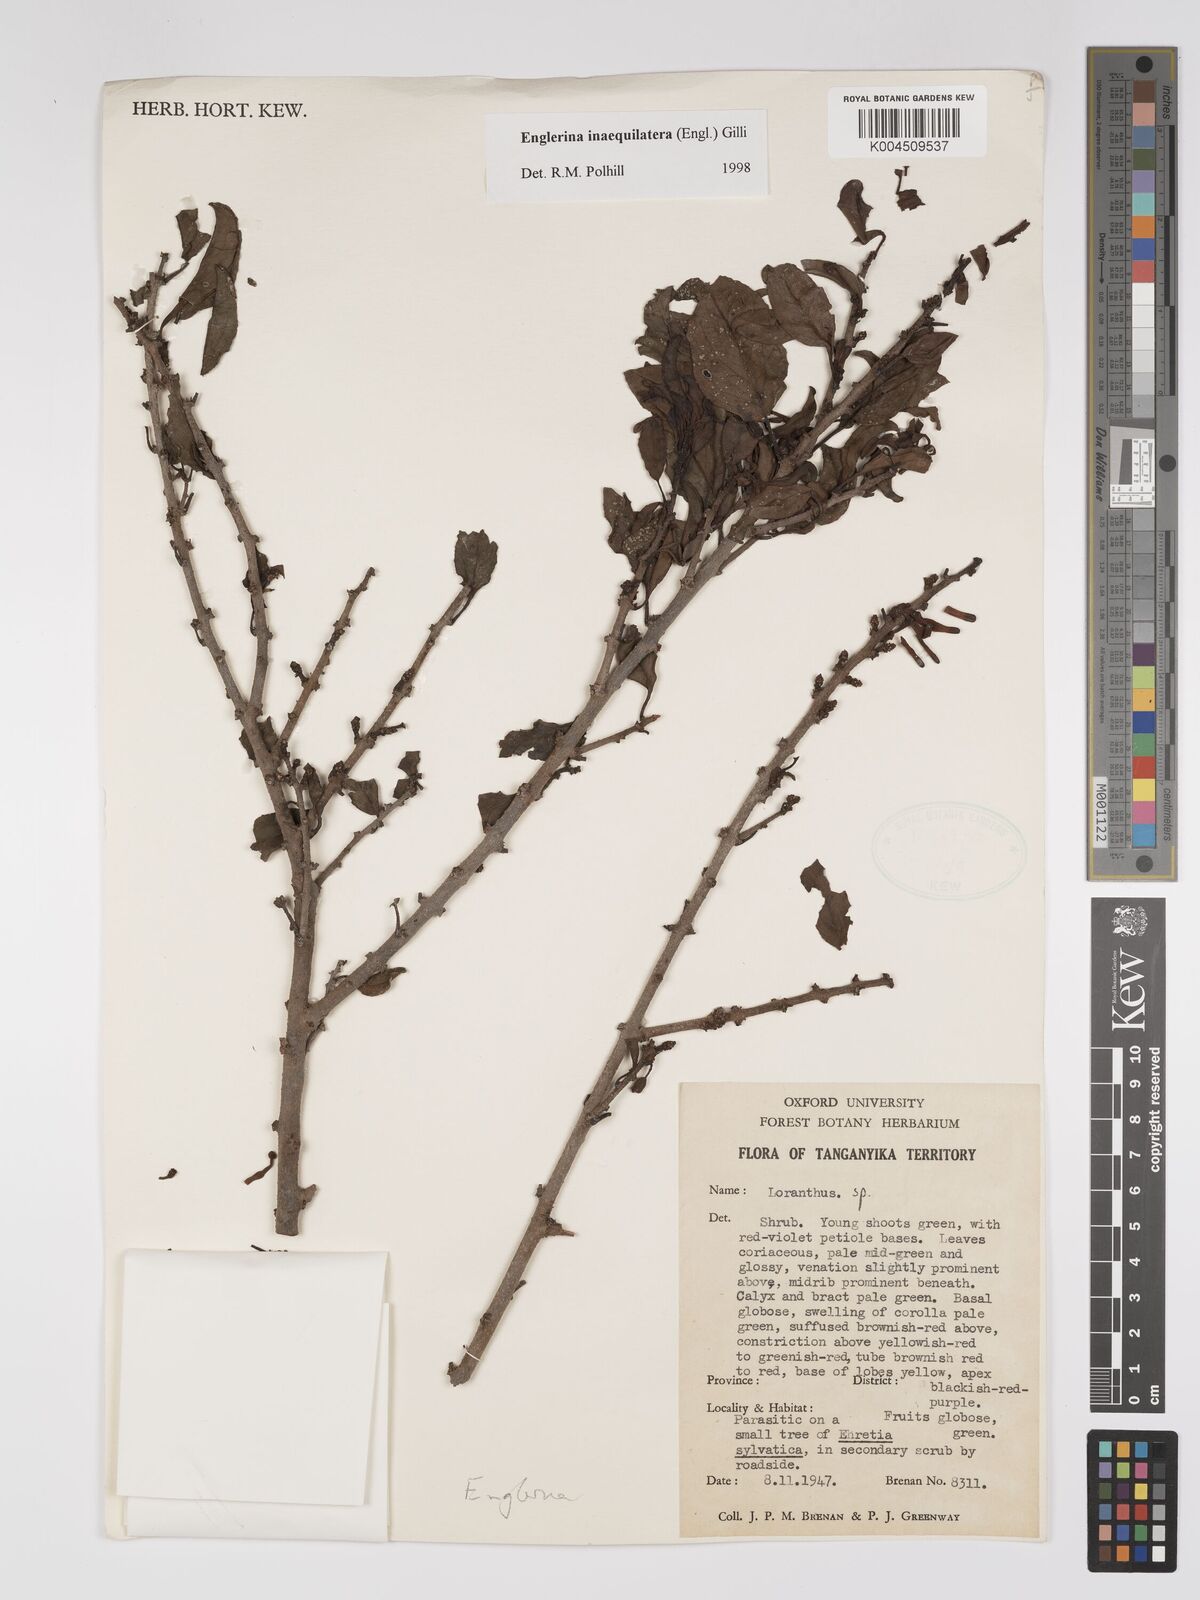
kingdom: Plantae
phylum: Tracheophyta
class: Magnoliopsida
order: Santalales
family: Loranthaceae
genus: Englerina
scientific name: Englerina inaequilatera
